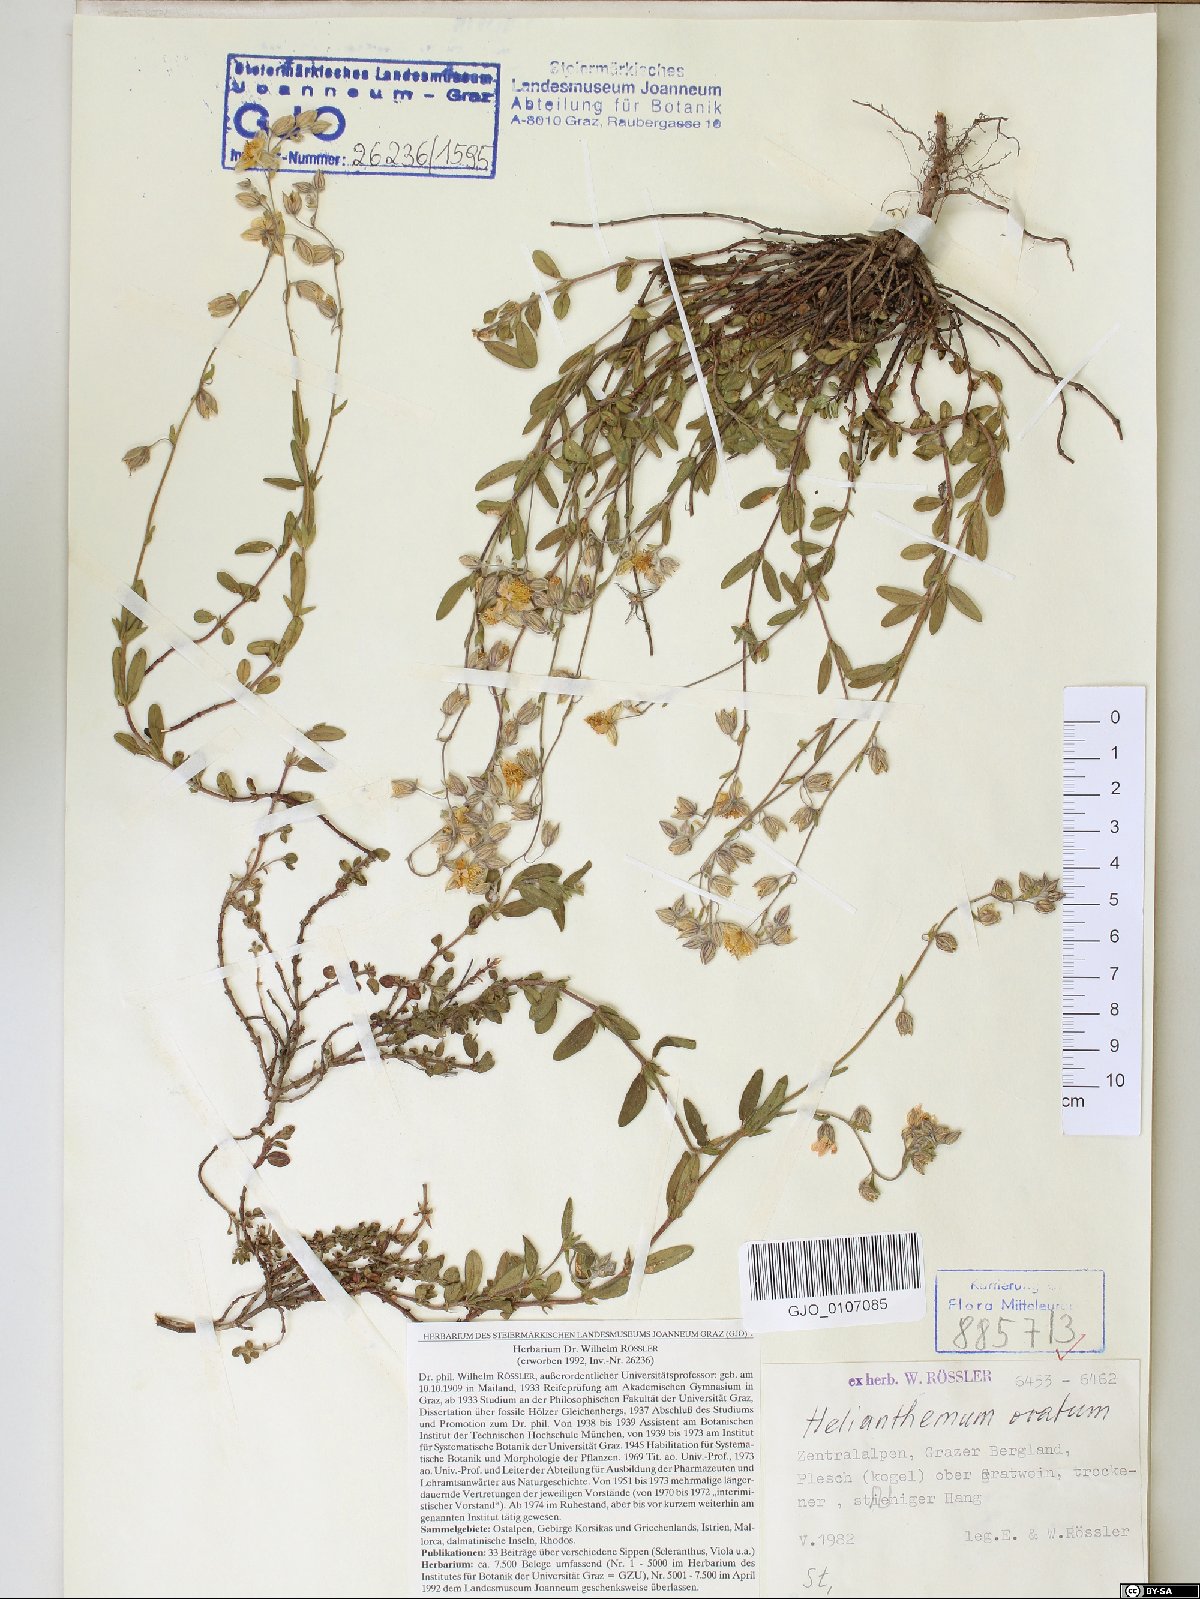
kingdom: Plantae
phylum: Tracheophyta
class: Magnoliopsida
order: Malvales
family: Cistaceae
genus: Helianthemum
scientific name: Helianthemum nummularium
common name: Common rock-rose
